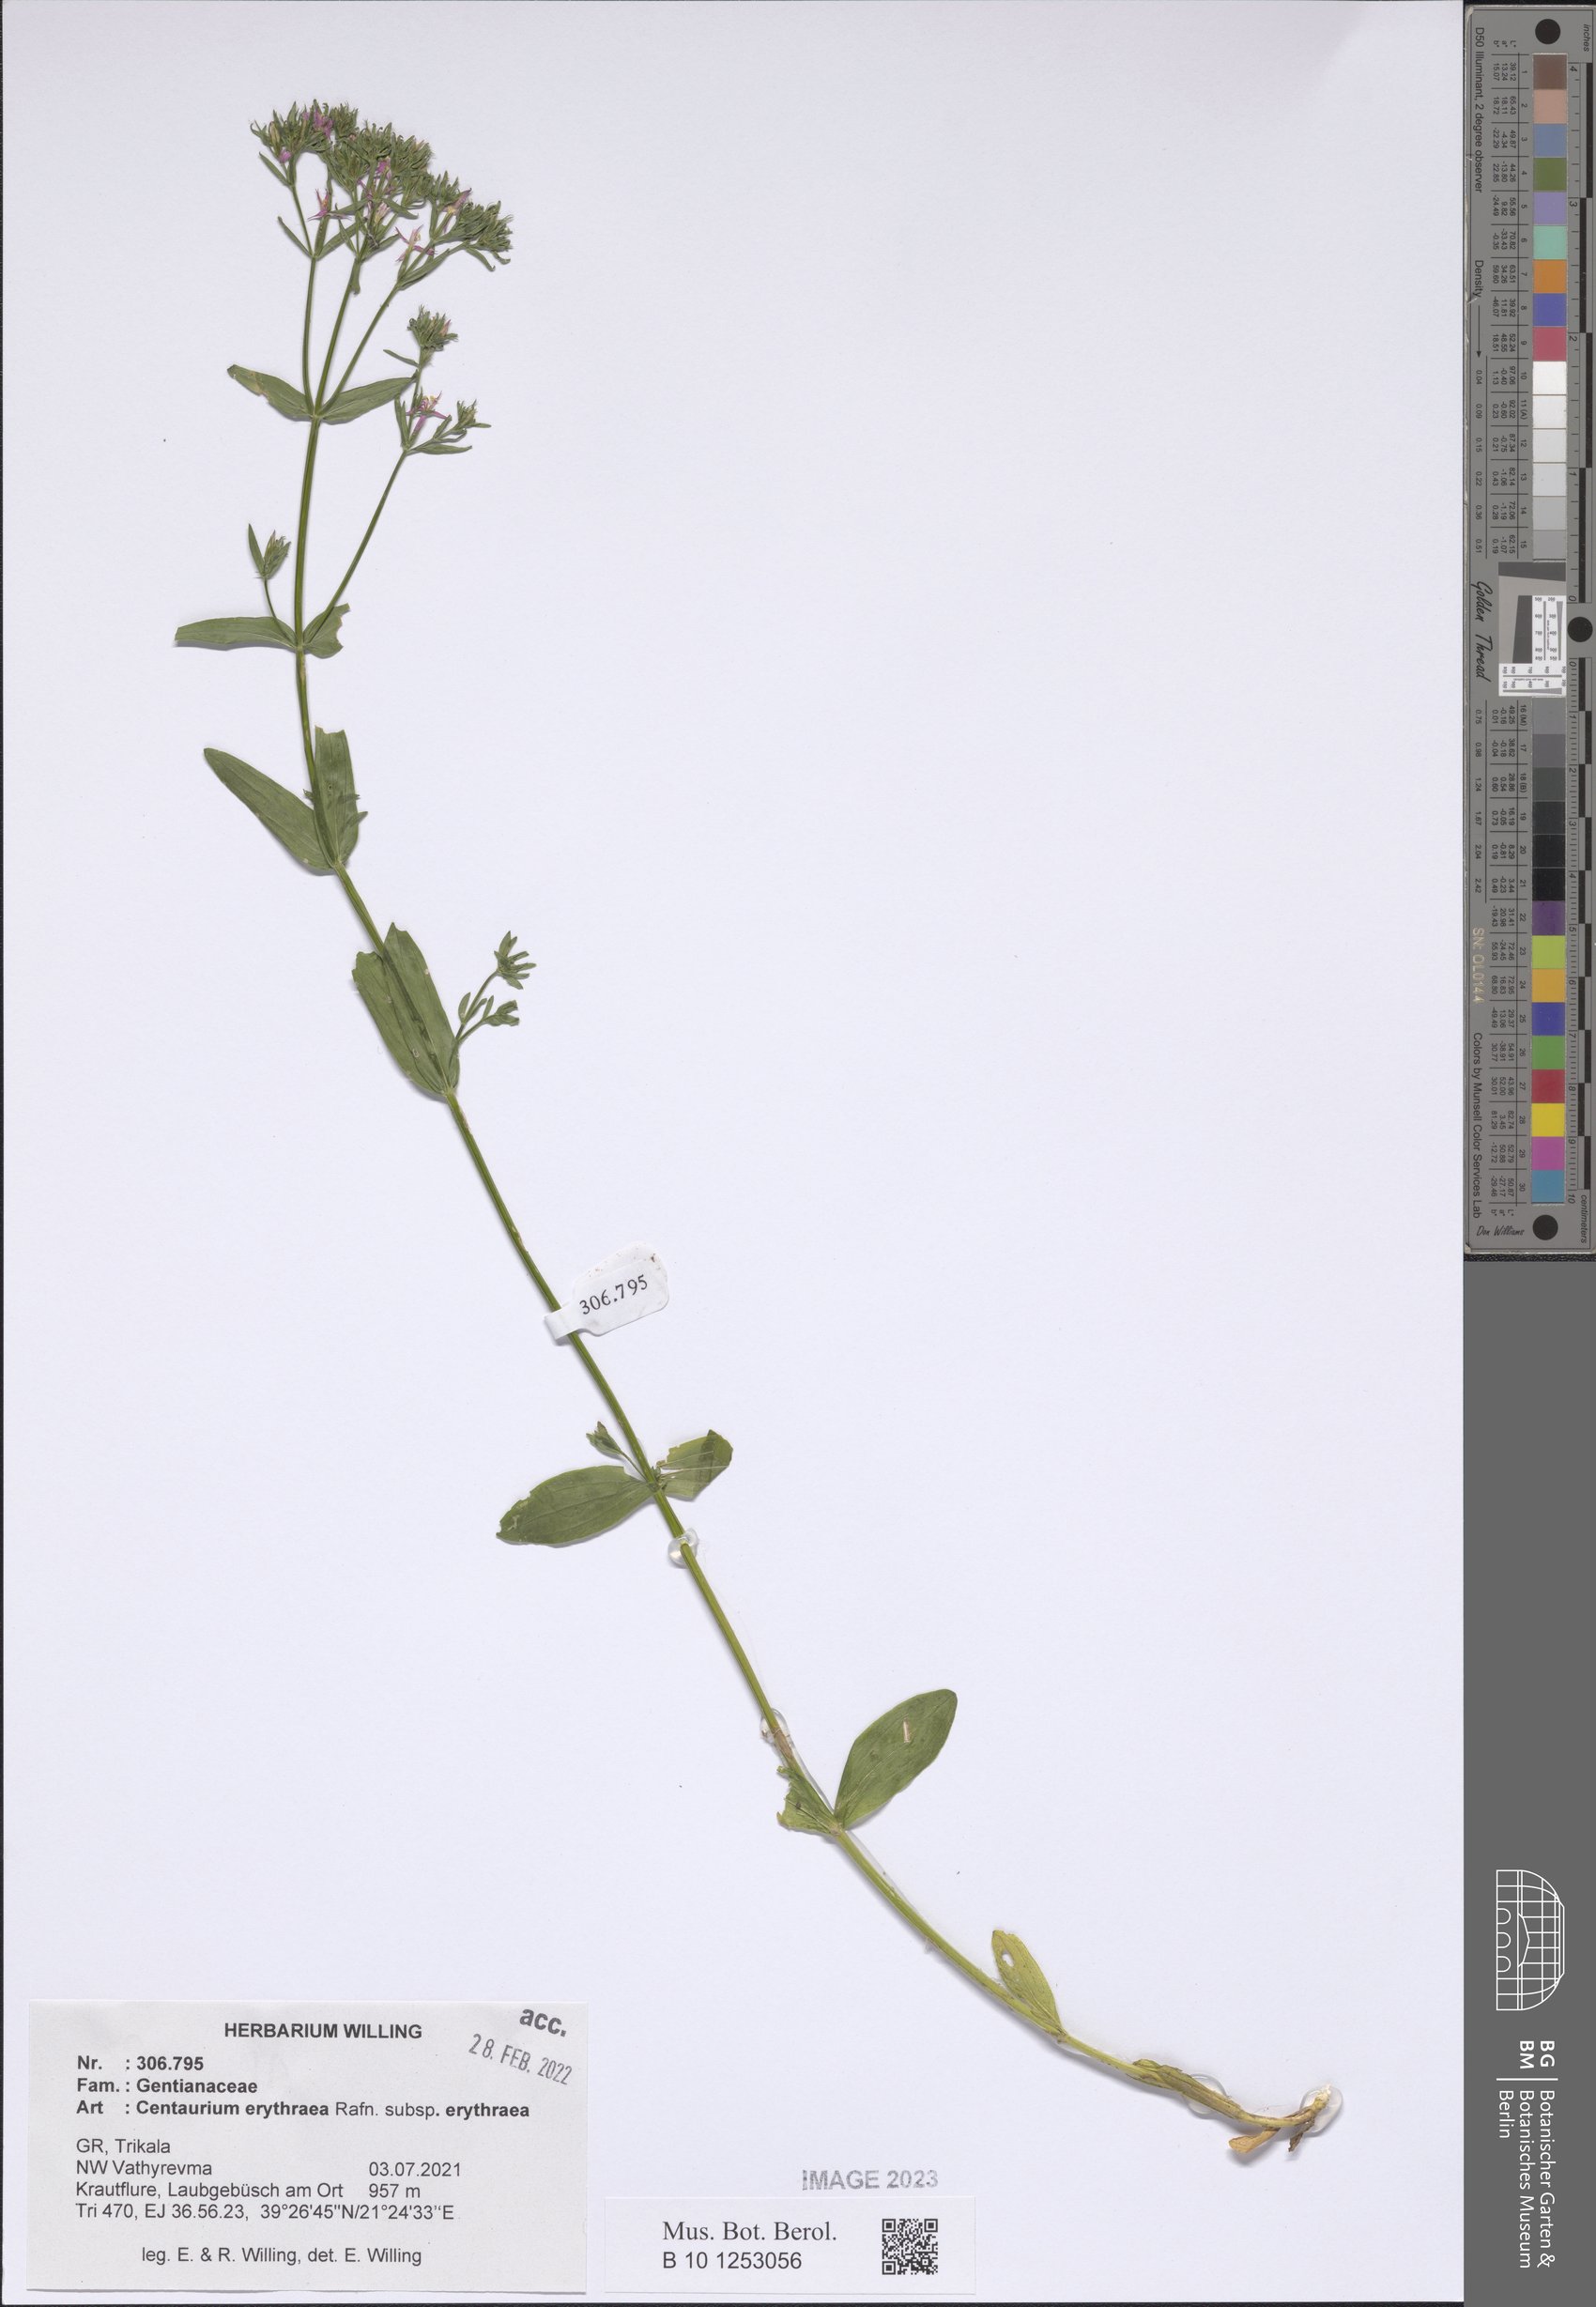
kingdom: Plantae
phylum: Tracheophyta
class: Magnoliopsida
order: Gentianales
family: Gentianaceae
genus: Centaurium
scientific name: Centaurium erythraea
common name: Common centaury
